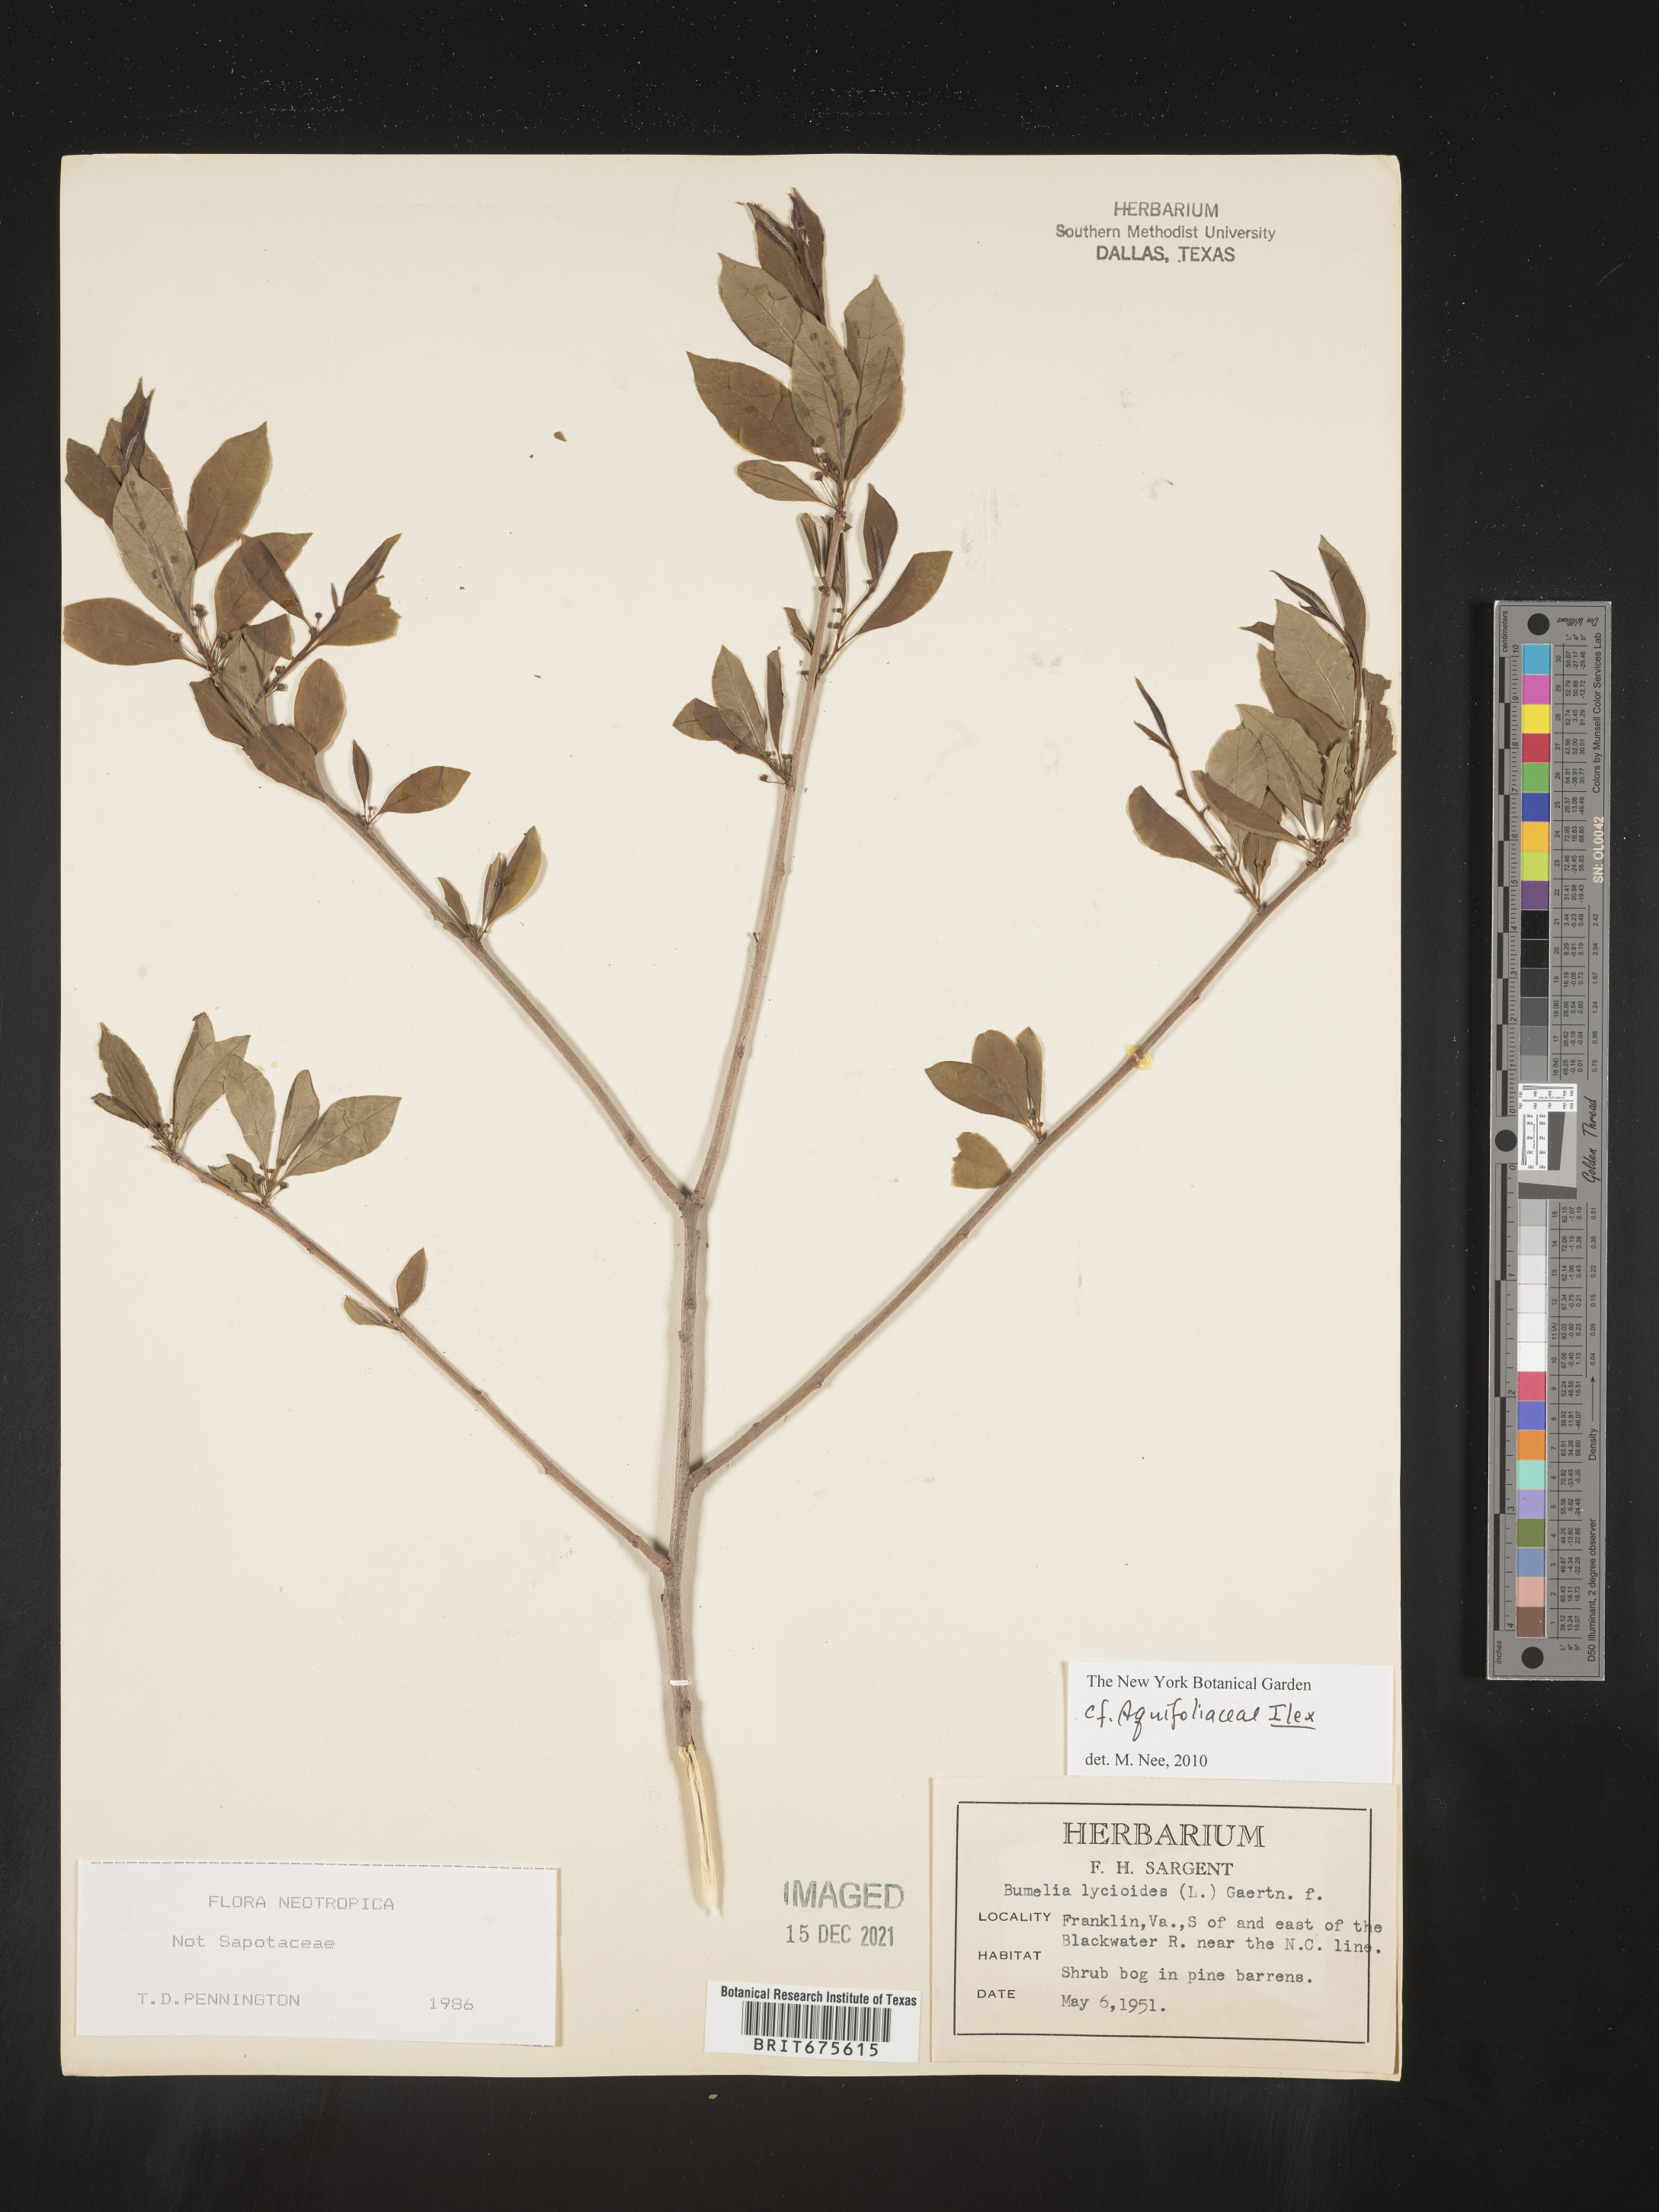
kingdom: Plantae
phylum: Tracheophyta
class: Magnoliopsida
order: Aquifoliales
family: Aquifoliaceae
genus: Ilex
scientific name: Ilex
